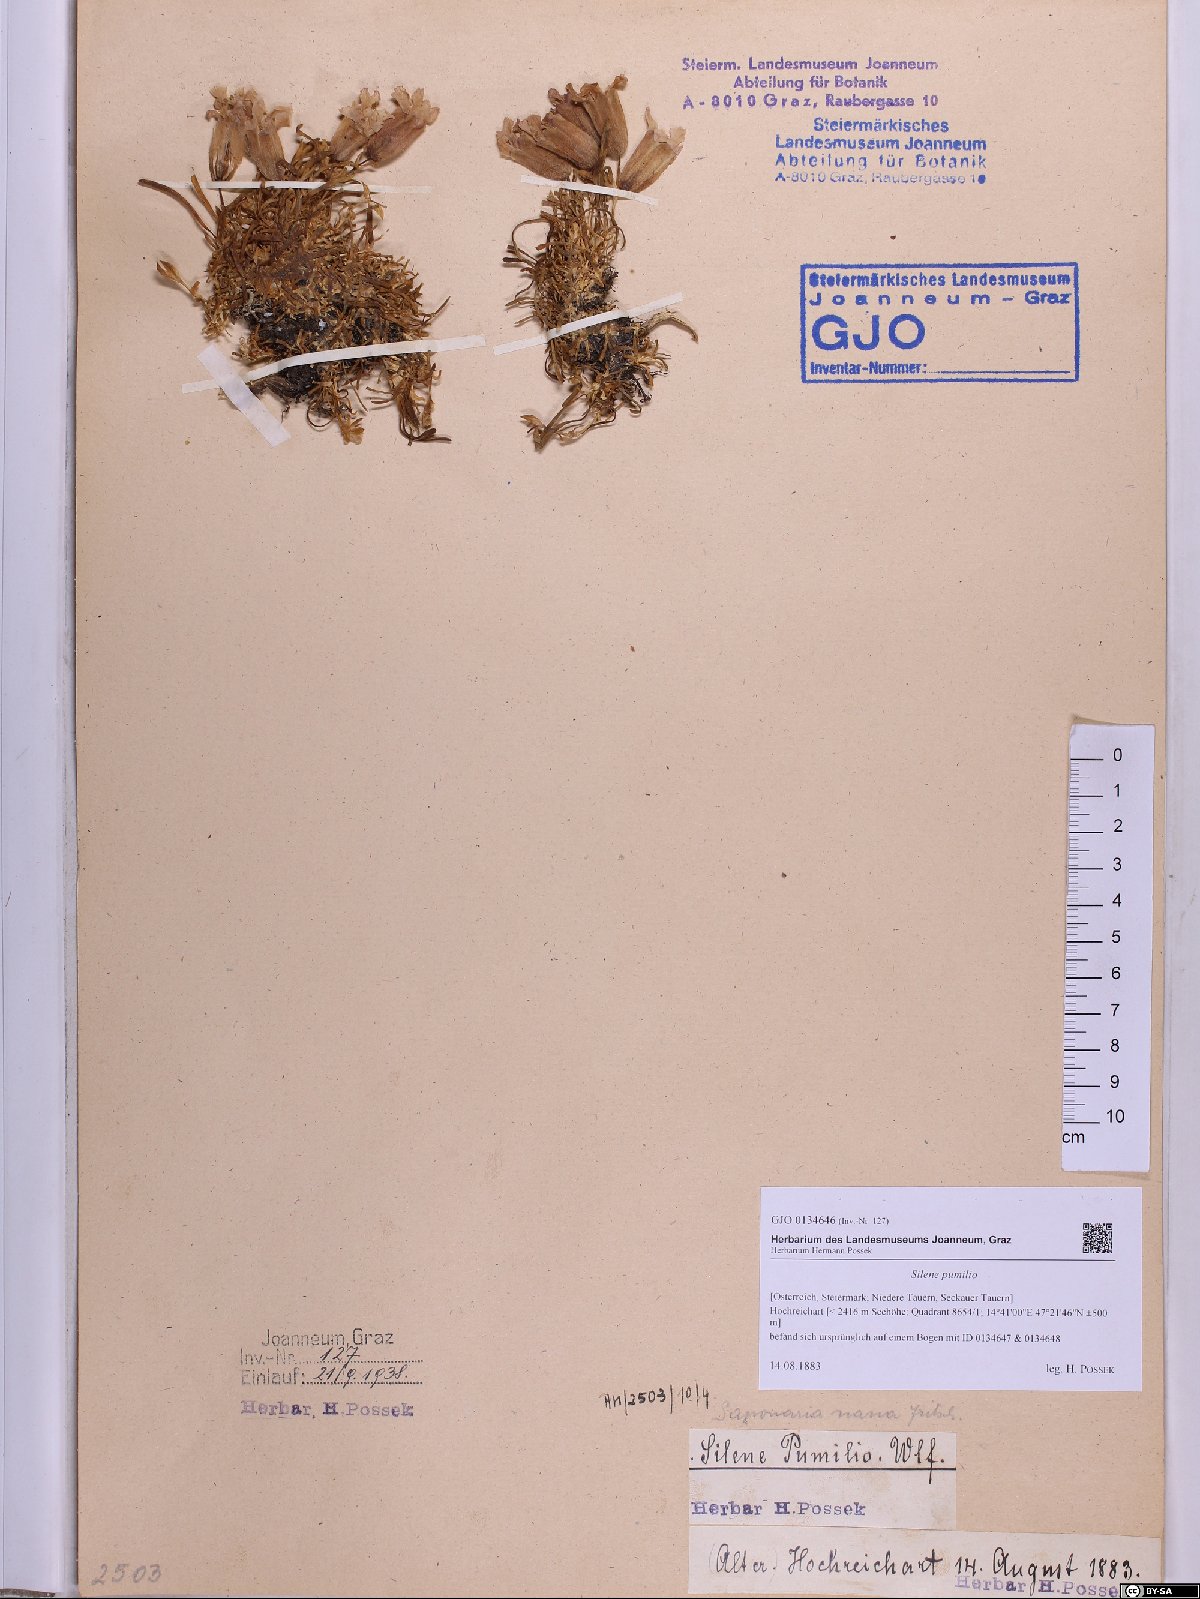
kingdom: Plantae
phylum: Tracheophyta
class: Magnoliopsida
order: Caryophyllales
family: Caryophyllaceae
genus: Saponaria
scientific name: Saponaria pumila
